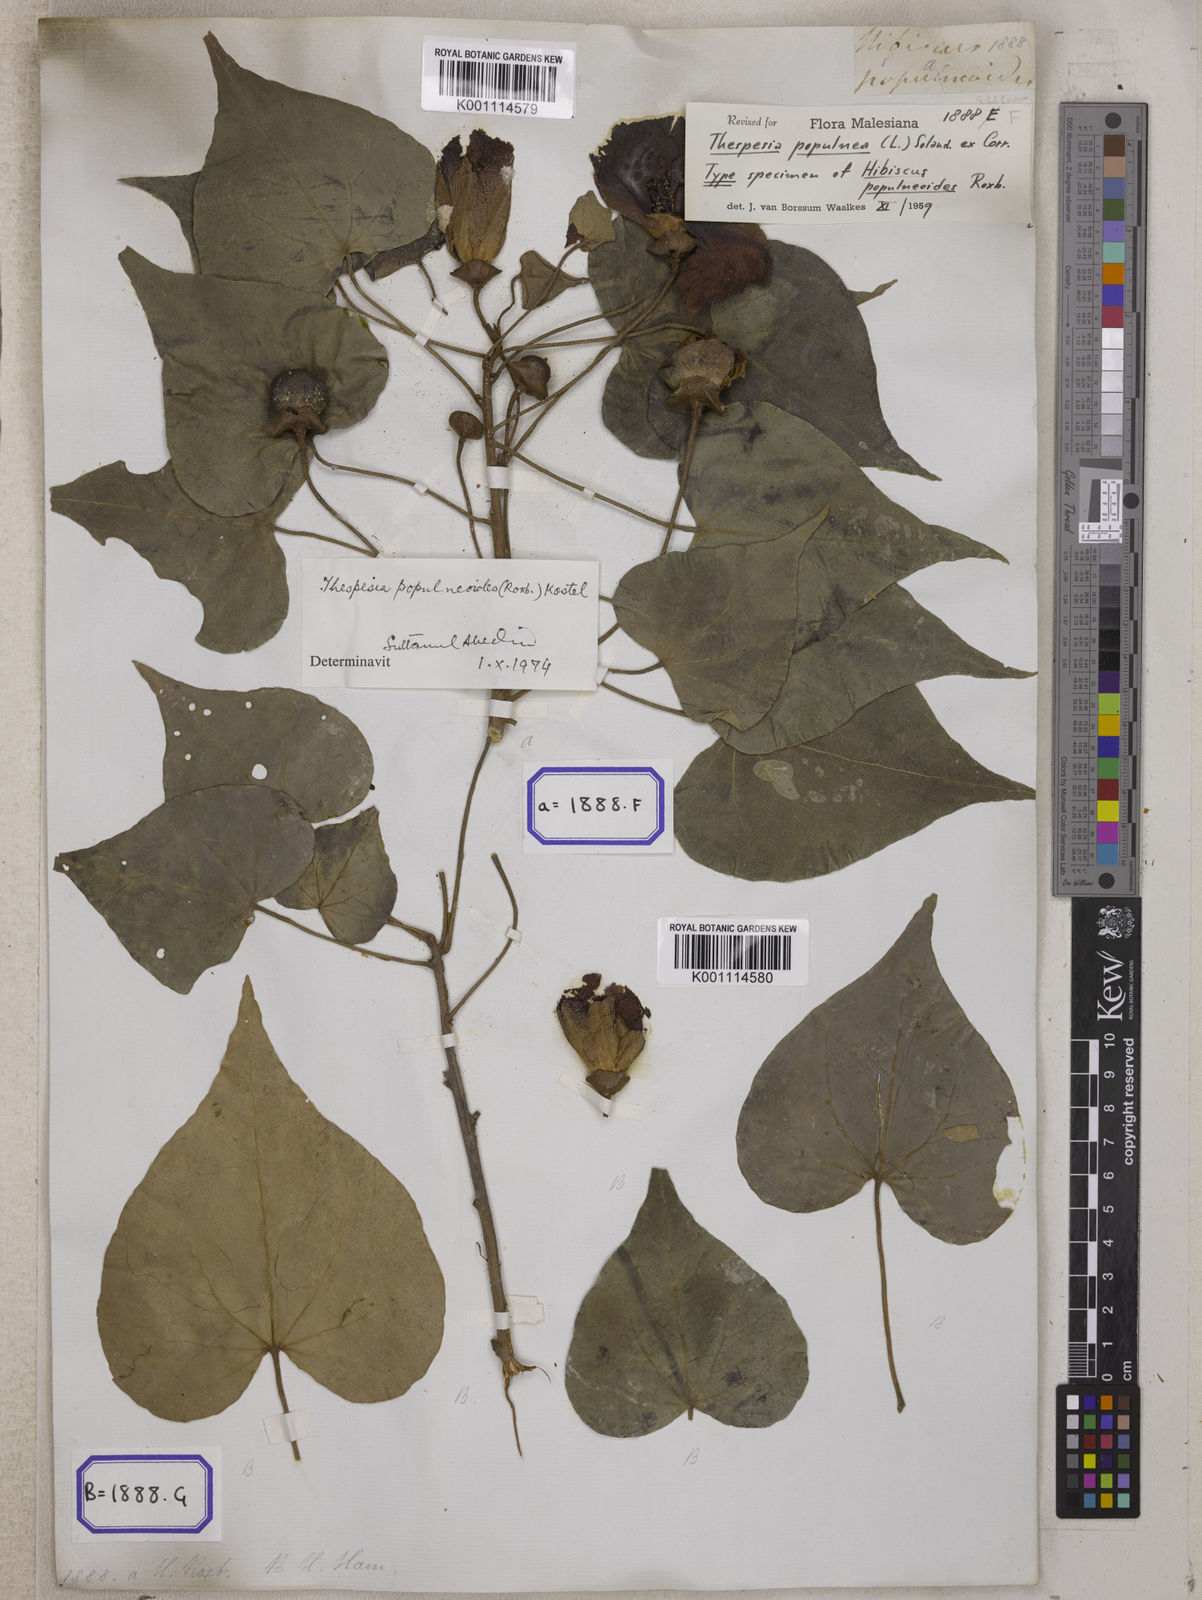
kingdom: Plantae
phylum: Tracheophyta
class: Magnoliopsida
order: Malvales
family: Malvaceae
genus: Thespesia
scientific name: Thespesia populnea
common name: Seaside mahoe
